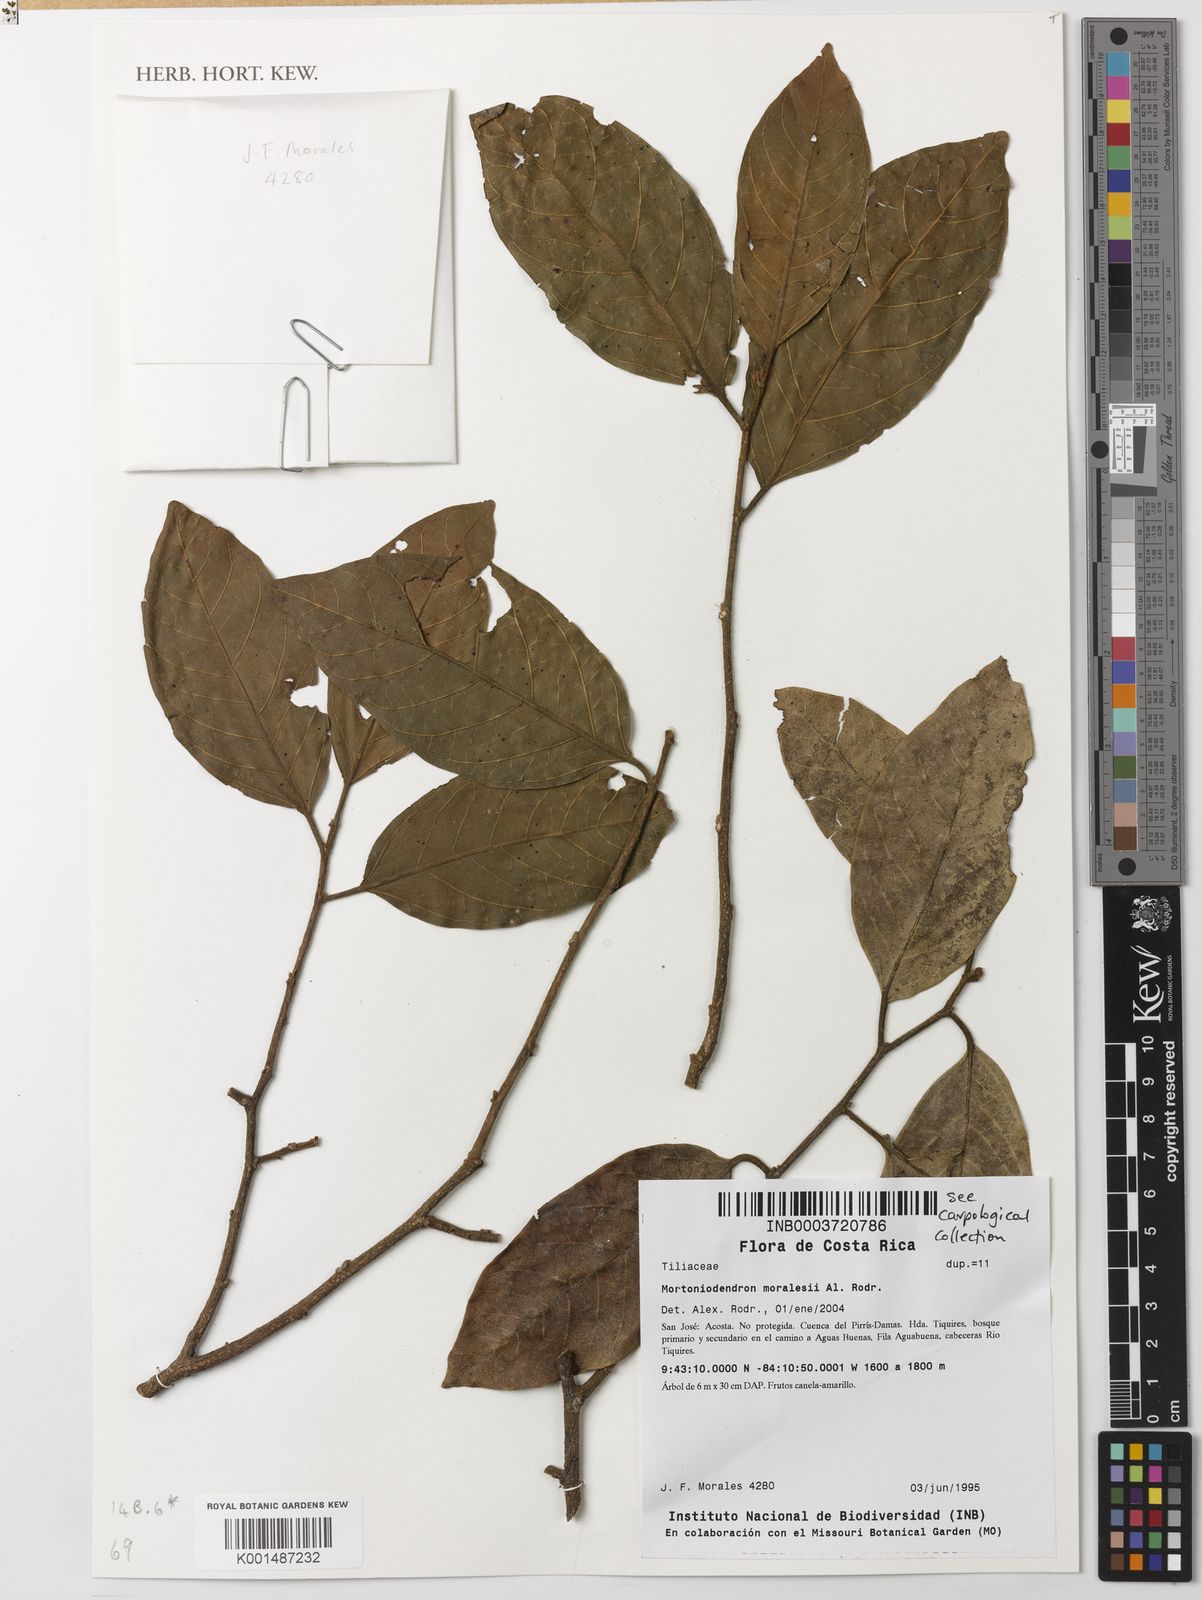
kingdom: Plantae
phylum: Tracheophyta
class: Magnoliopsida
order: Malvales
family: Malvaceae
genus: Mortoniodendron
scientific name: Mortoniodendron anisophyllum
